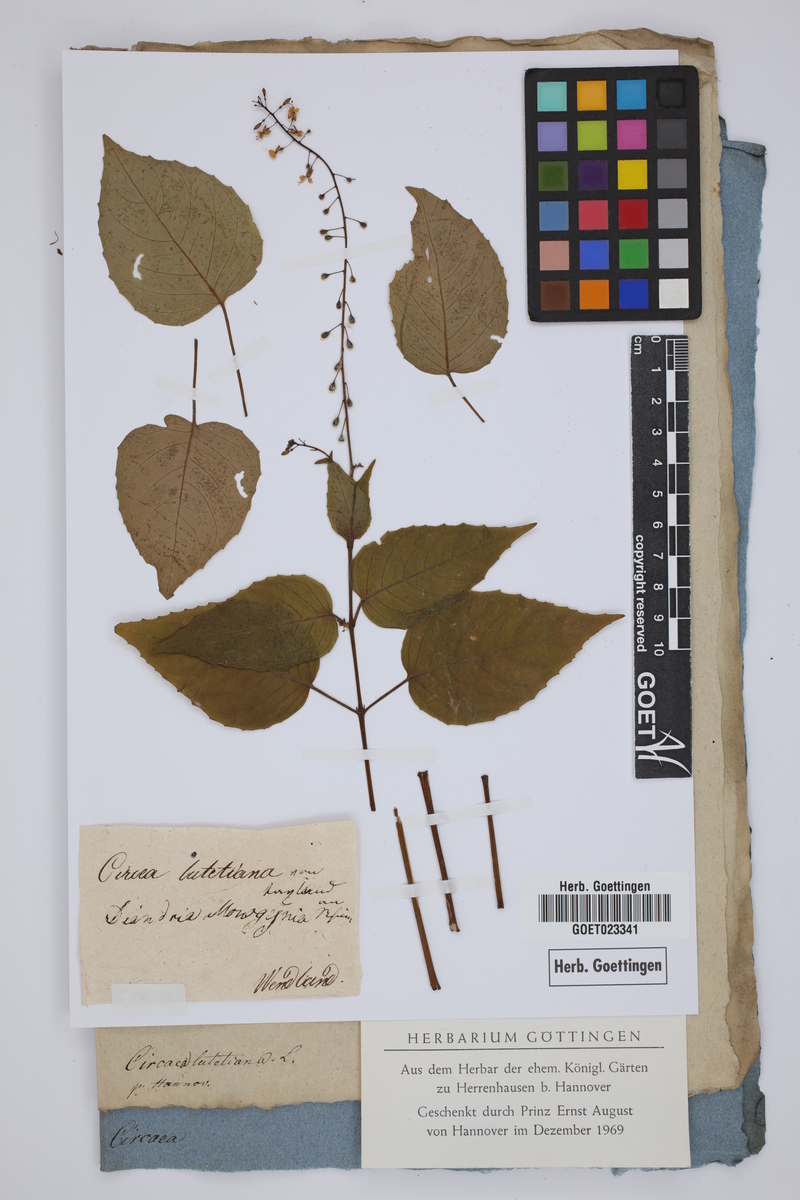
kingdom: Plantae
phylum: Tracheophyta
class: Magnoliopsida
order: Myrtales
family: Onagraceae
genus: Circaea
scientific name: Circaea lutetiana
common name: Enchanter's-nightshade
